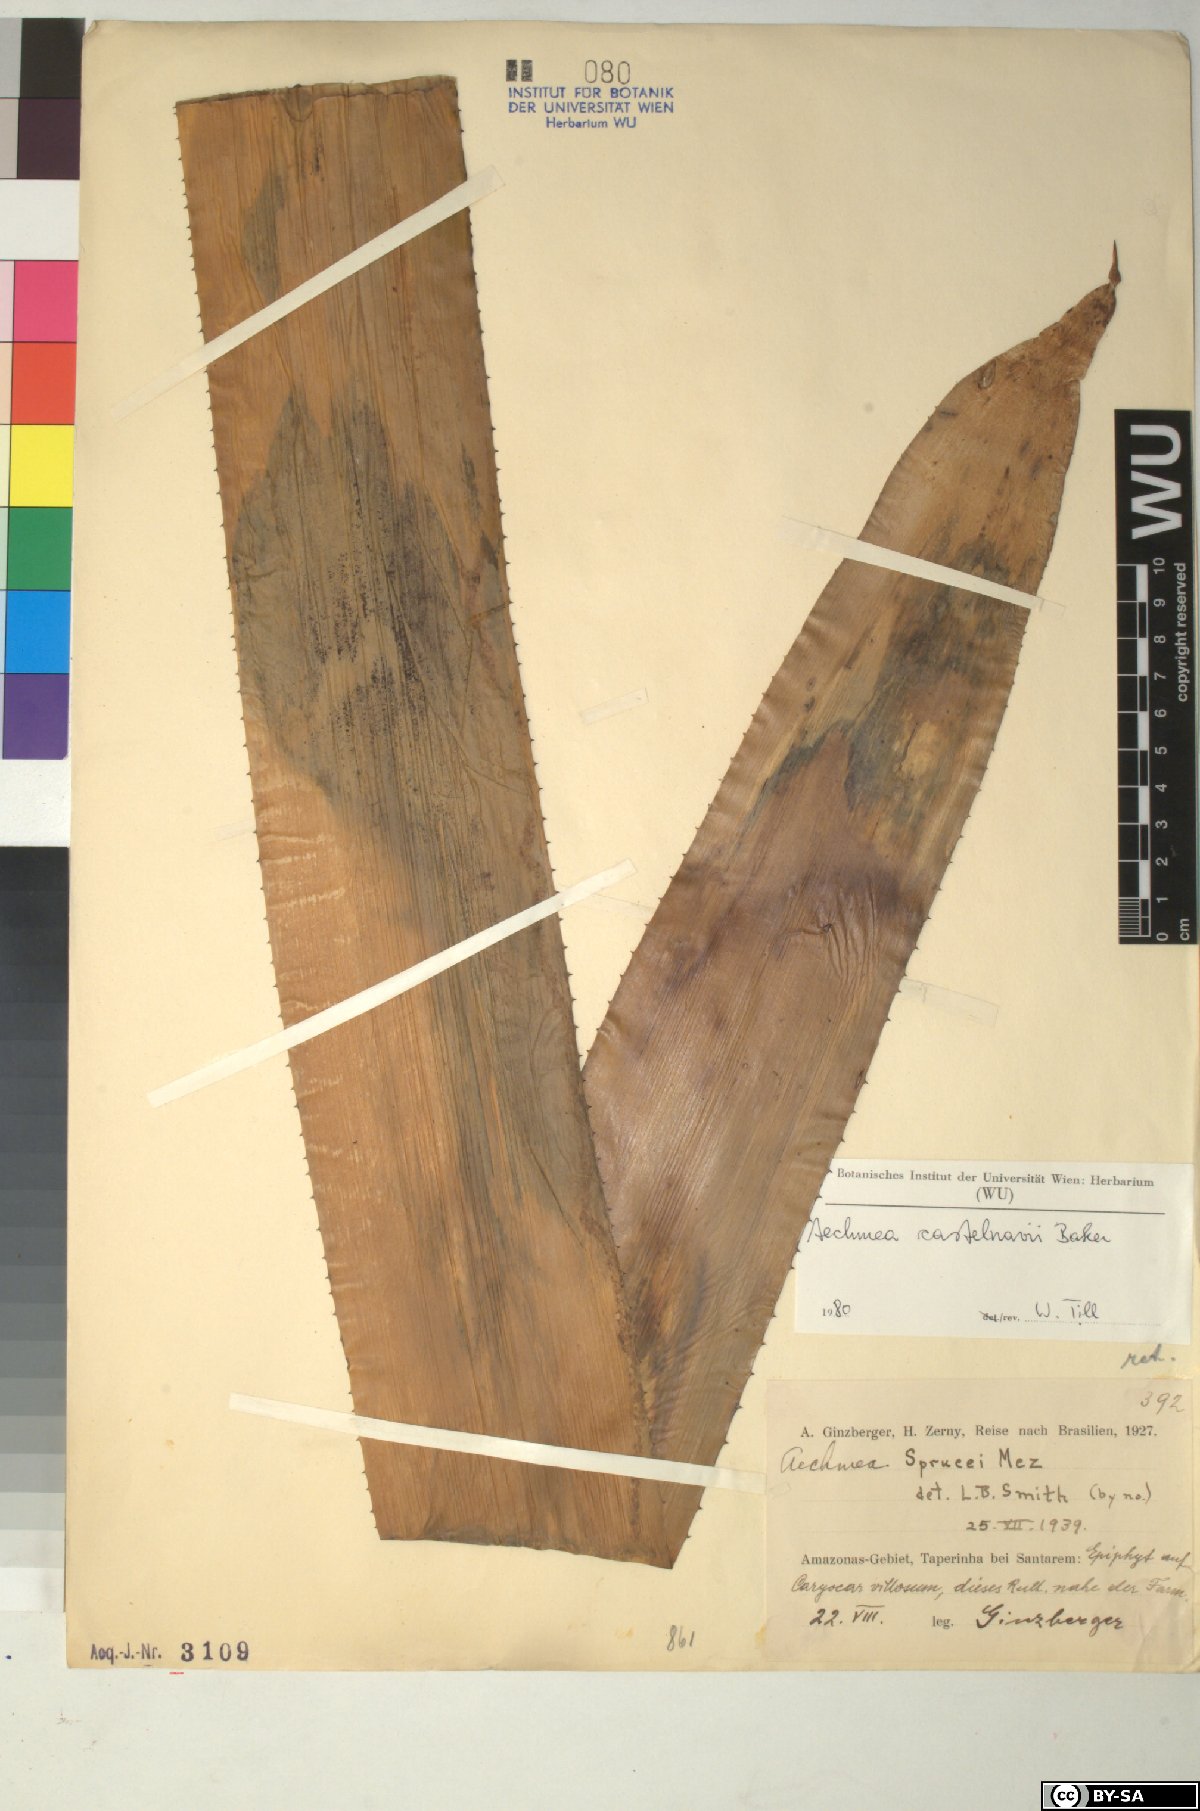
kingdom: Plantae
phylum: Tracheophyta
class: Liliopsida
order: Poales
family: Bromeliaceae
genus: Aechmea
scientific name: Aechmea castelnavii
